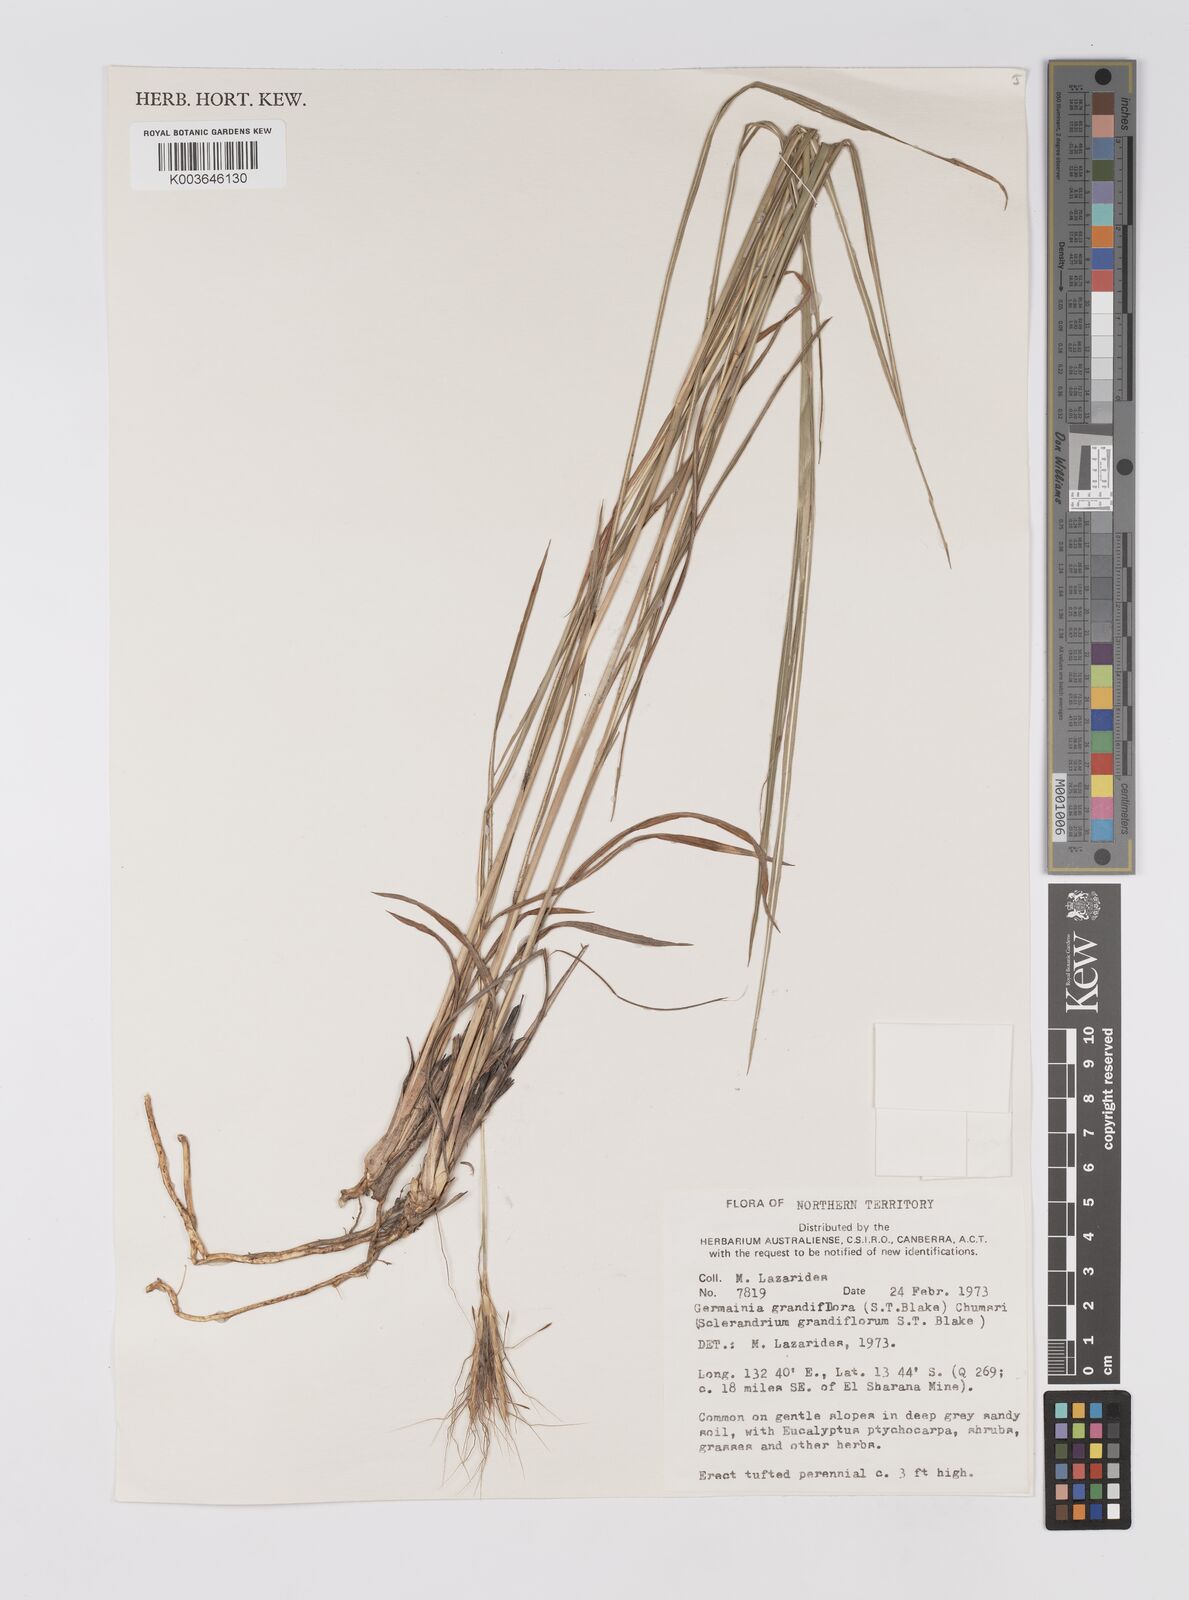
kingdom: Plantae
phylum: Tracheophyta
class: Liliopsida
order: Poales
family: Poaceae
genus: Germainia
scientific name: Germainia grandiflora
